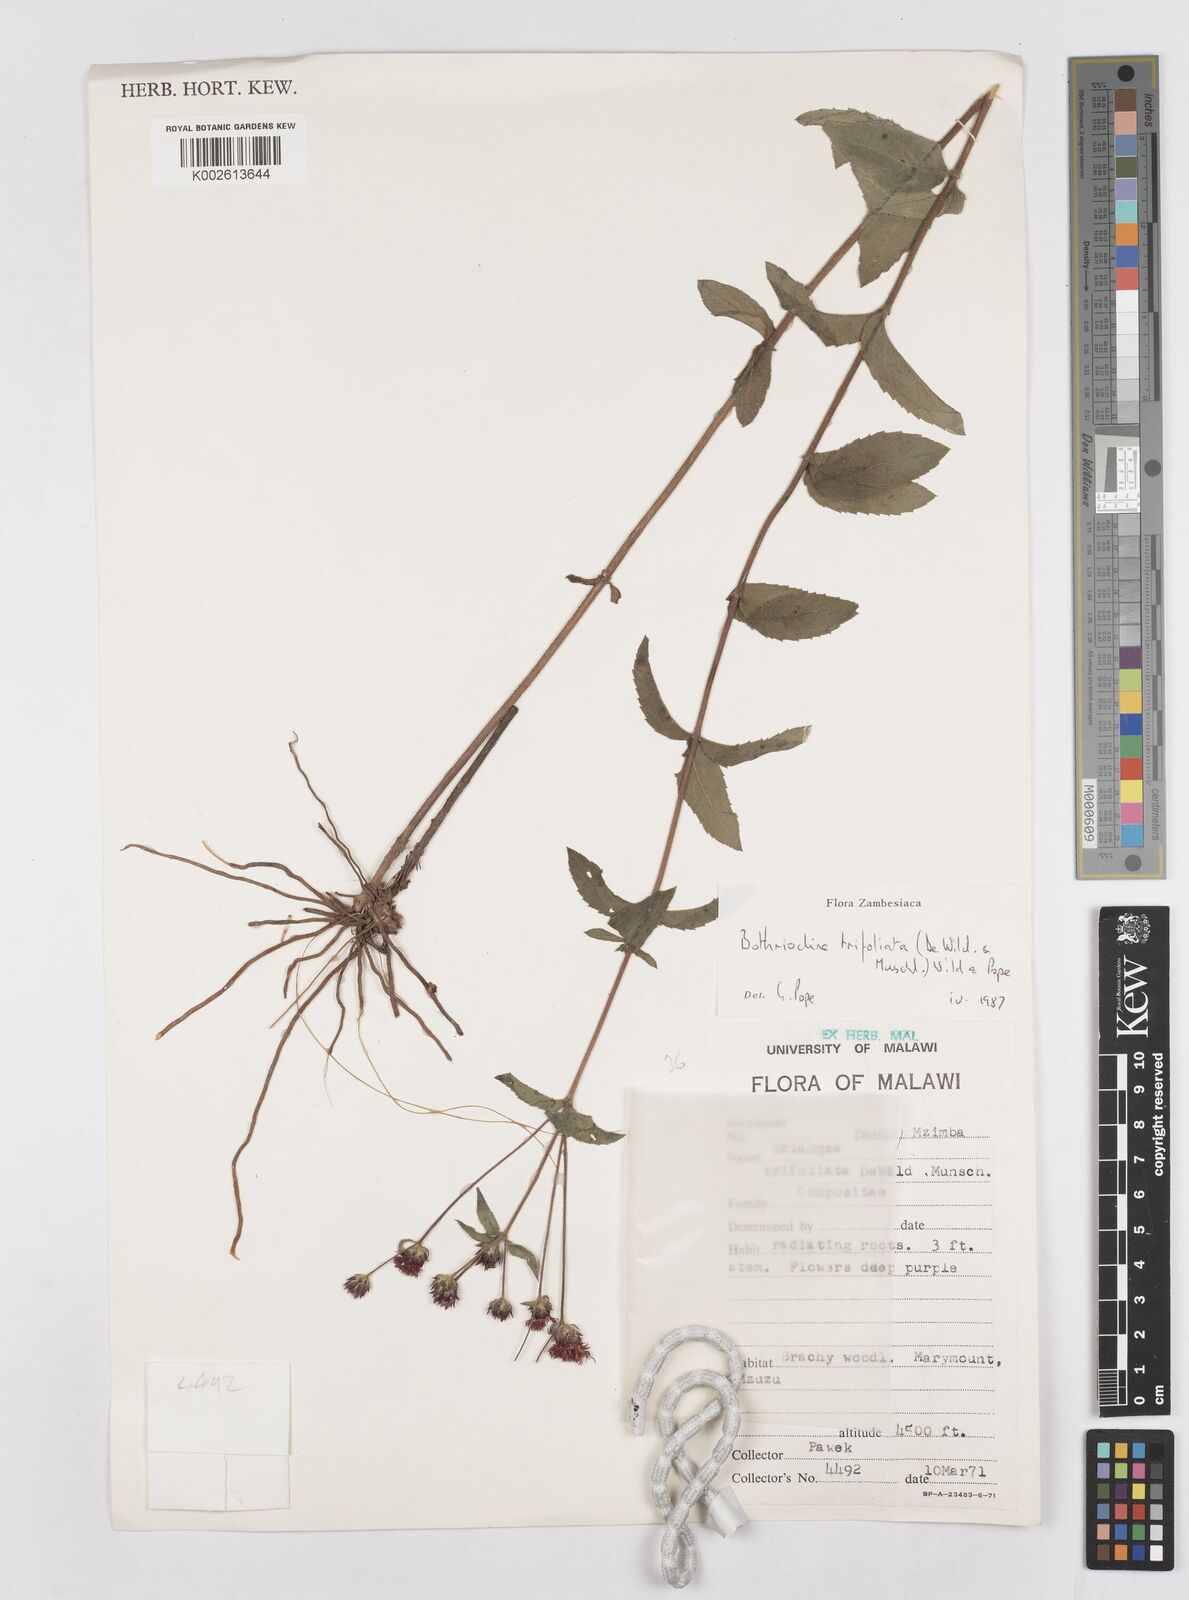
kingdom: Plantae
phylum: Tracheophyta
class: Magnoliopsida
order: Asterales
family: Asteraceae
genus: Bothriocline
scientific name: Bothriocline trifoliata
